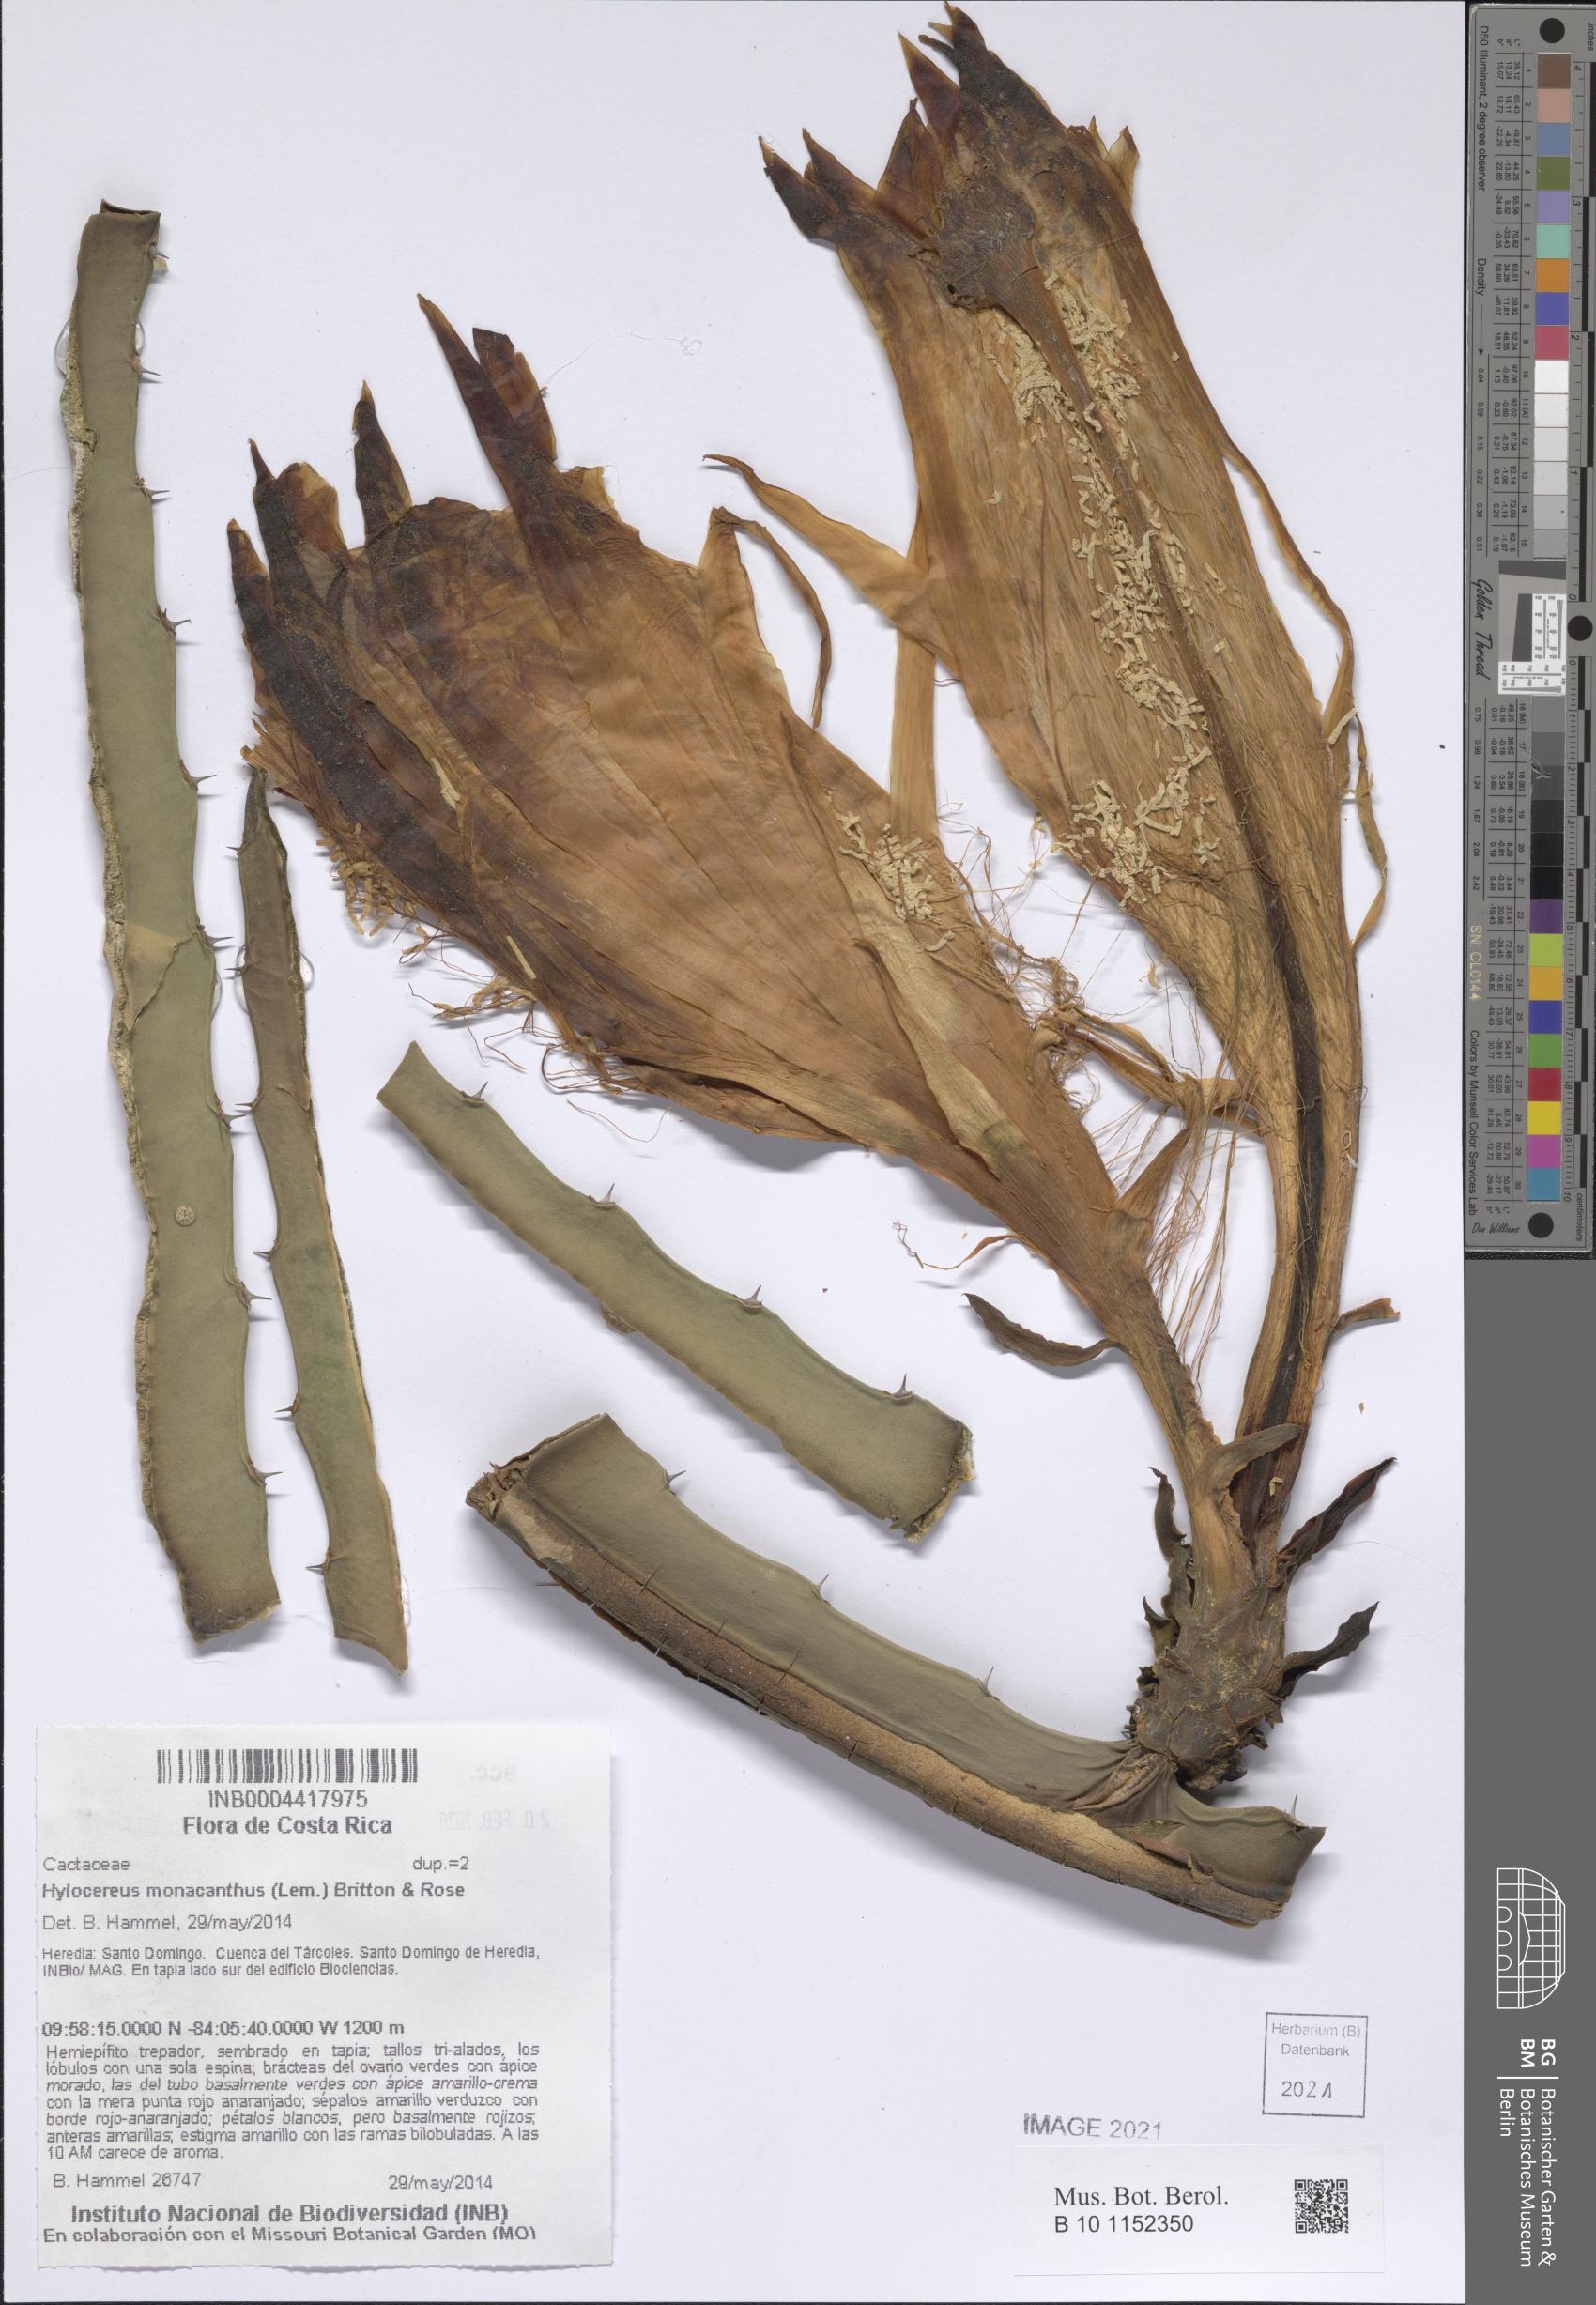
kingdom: Plantae
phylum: Tracheophyta
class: Magnoliopsida
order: Caryophyllales
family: Cactaceae
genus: Selenicereus
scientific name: Selenicereus monacanthus
